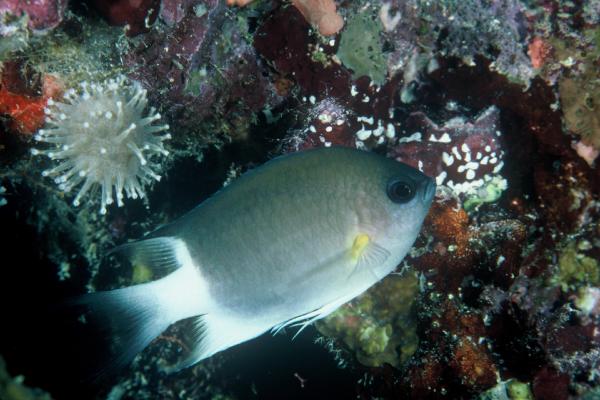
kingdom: Animalia
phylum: Chordata
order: Perciformes
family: Pomacentridae
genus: Chromis
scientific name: Chromis flavipectoralis
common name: Malayan chromis
